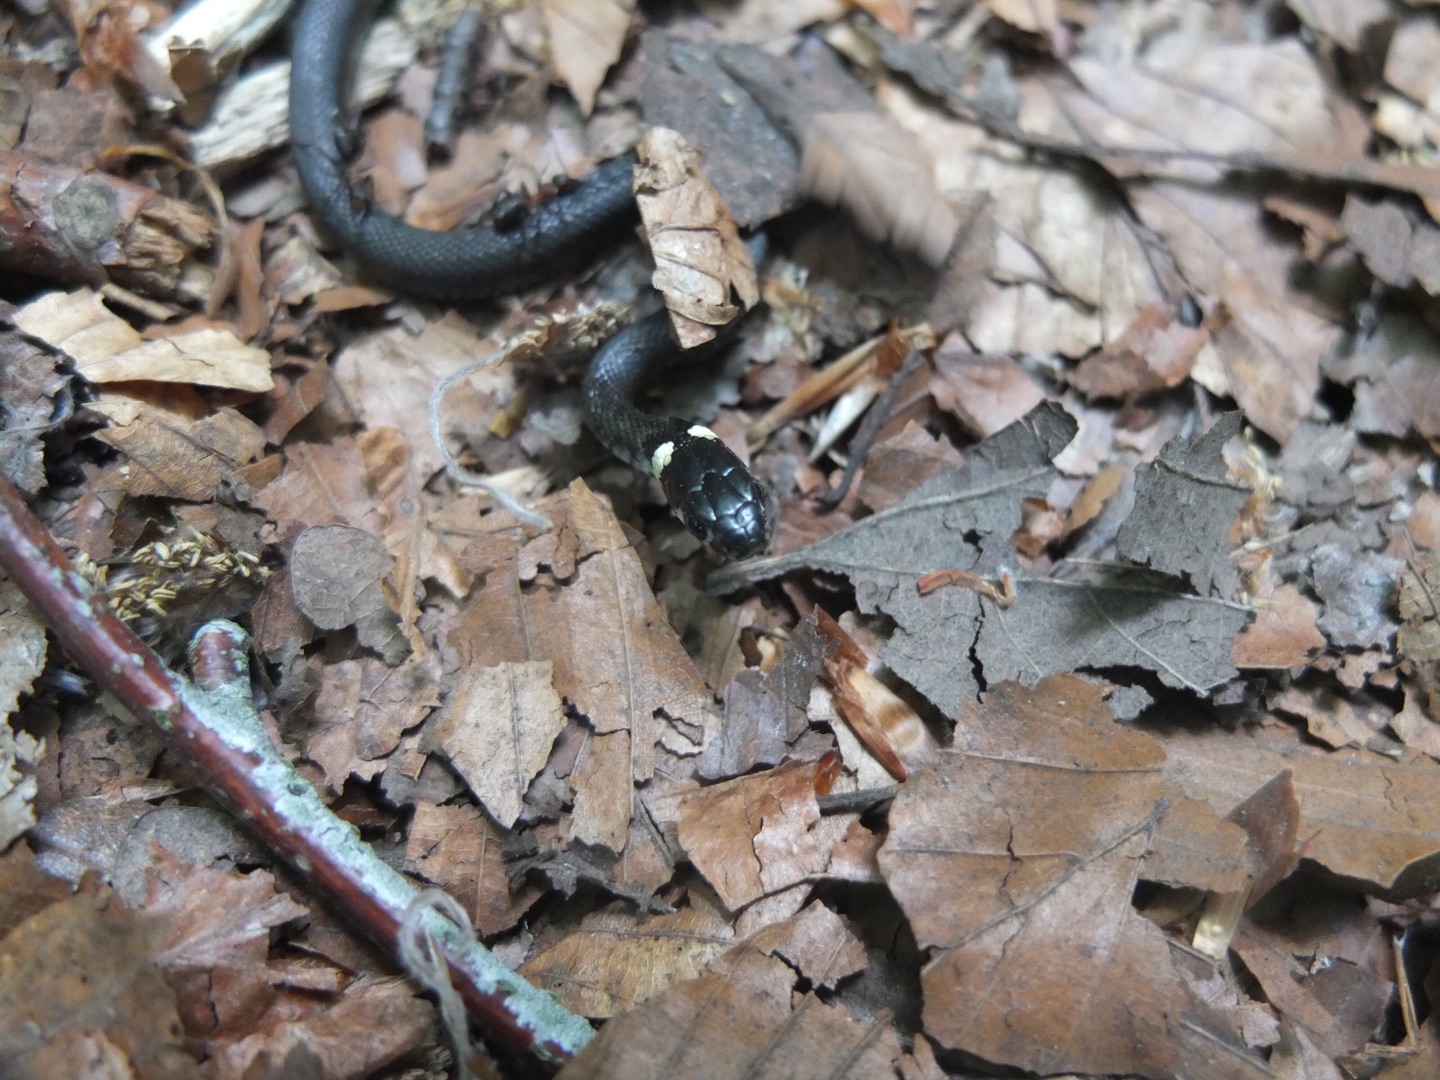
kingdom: Animalia
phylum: Chordata
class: Squamata
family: Colubridae
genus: Natrix
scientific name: Natrix natrix
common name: Snog
